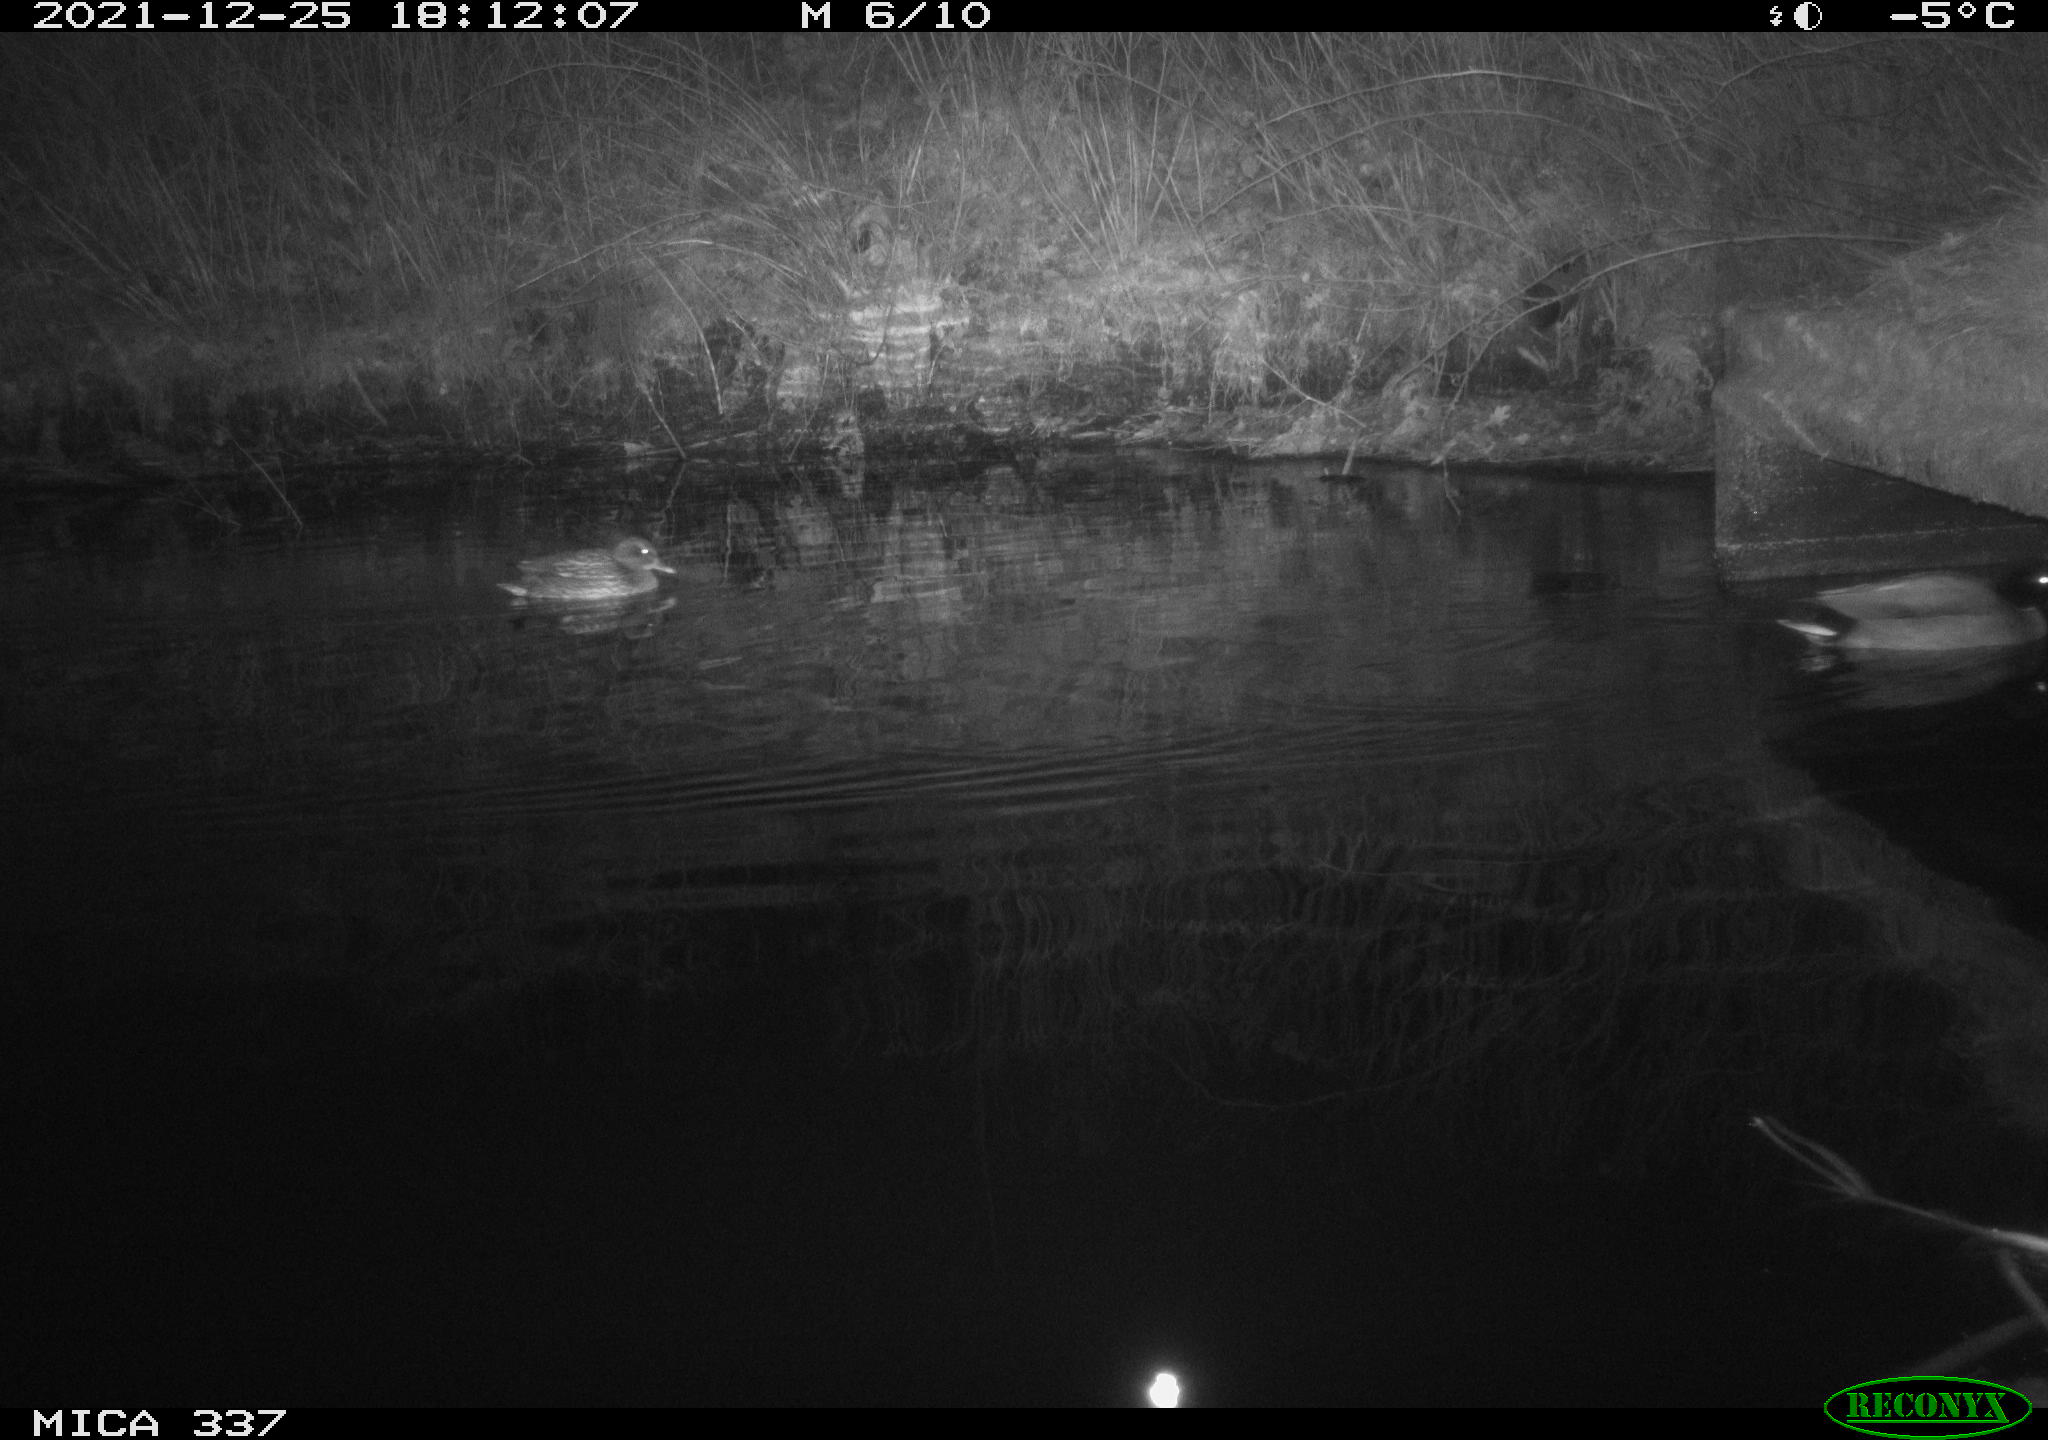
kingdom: Animalia
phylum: Chordata
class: Aves
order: Anseriformes
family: Anatidae
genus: Anas
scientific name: Anas platyrhynchos
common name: Mallard
